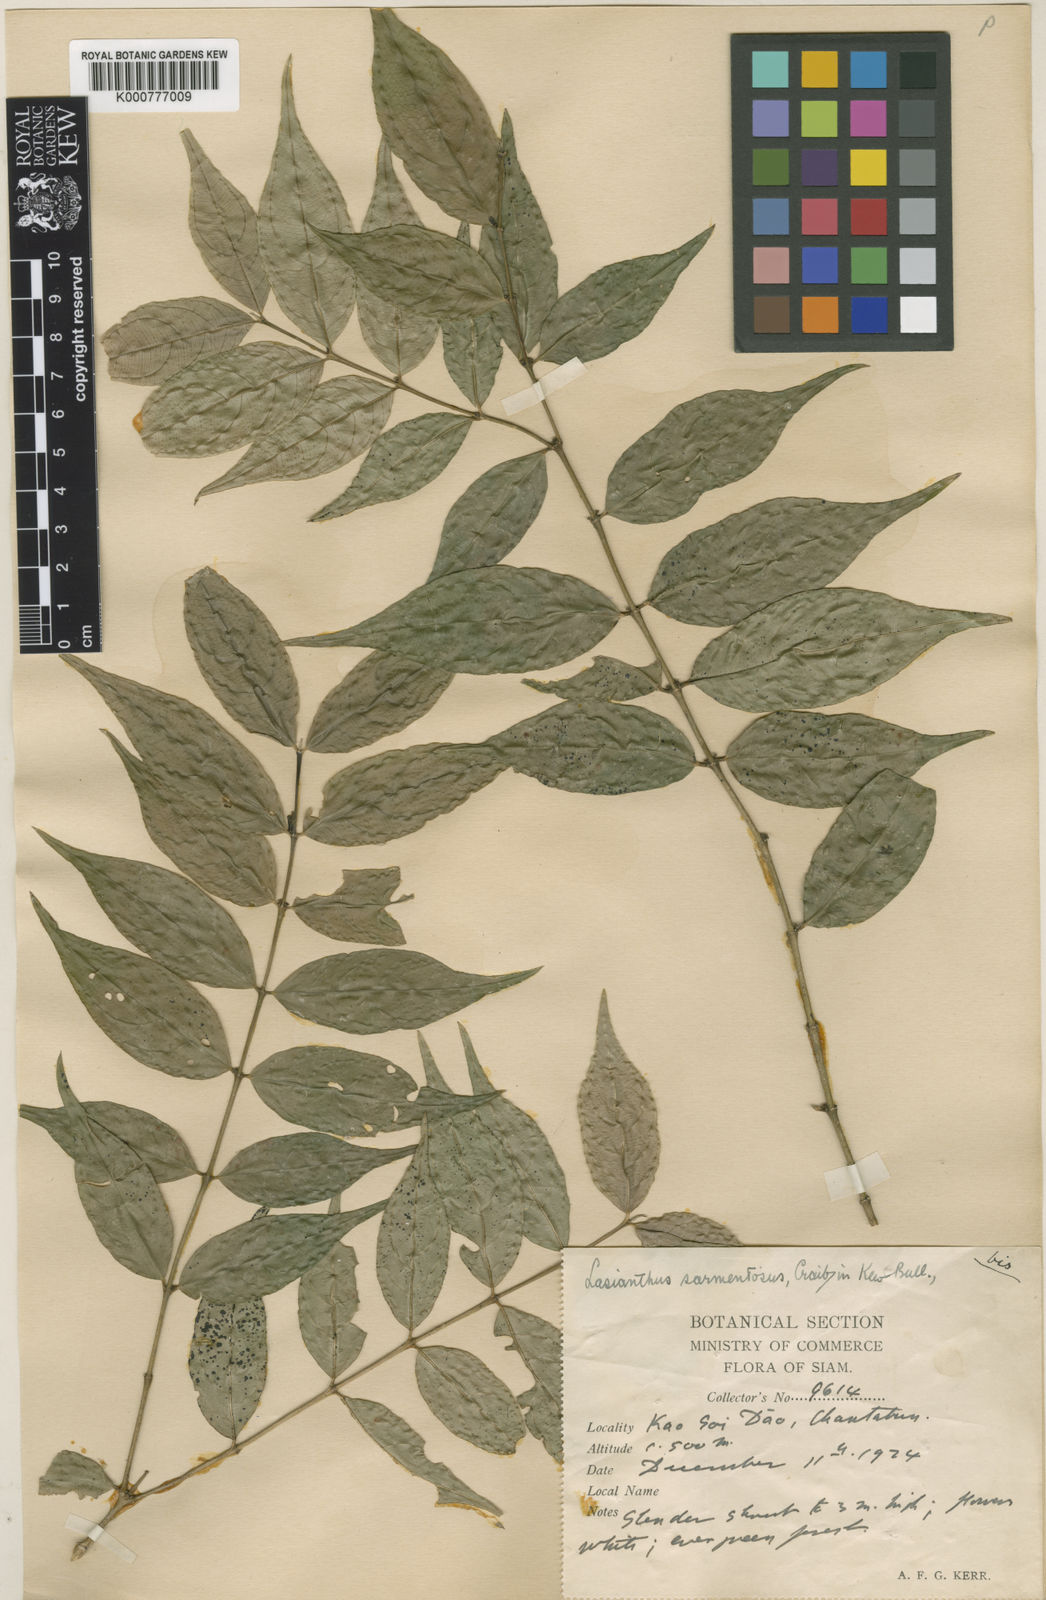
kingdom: Plantae
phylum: Tracheophyta
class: Magnoliopsida
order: Gentianales
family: Rubiaceae
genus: Lasianthus
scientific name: Lasianthus sarmentosus
